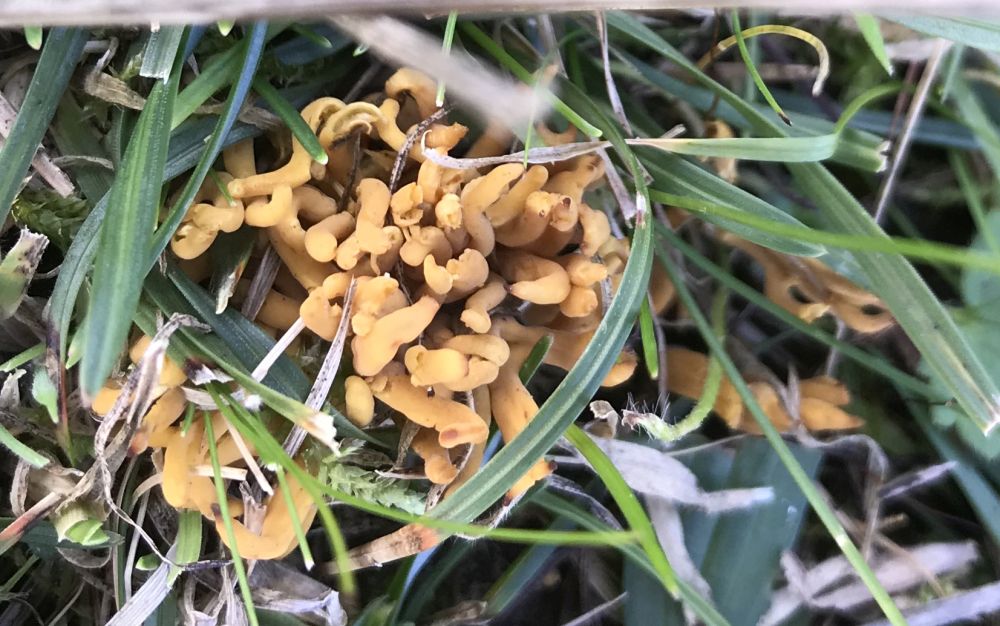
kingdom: Fungi
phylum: Basidiomycota
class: Agaricomycetes
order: Agaricales
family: Clavariaceae
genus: Clavulinopsis
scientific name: Clavulinopsis corniculata
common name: eng-køllesvamp
